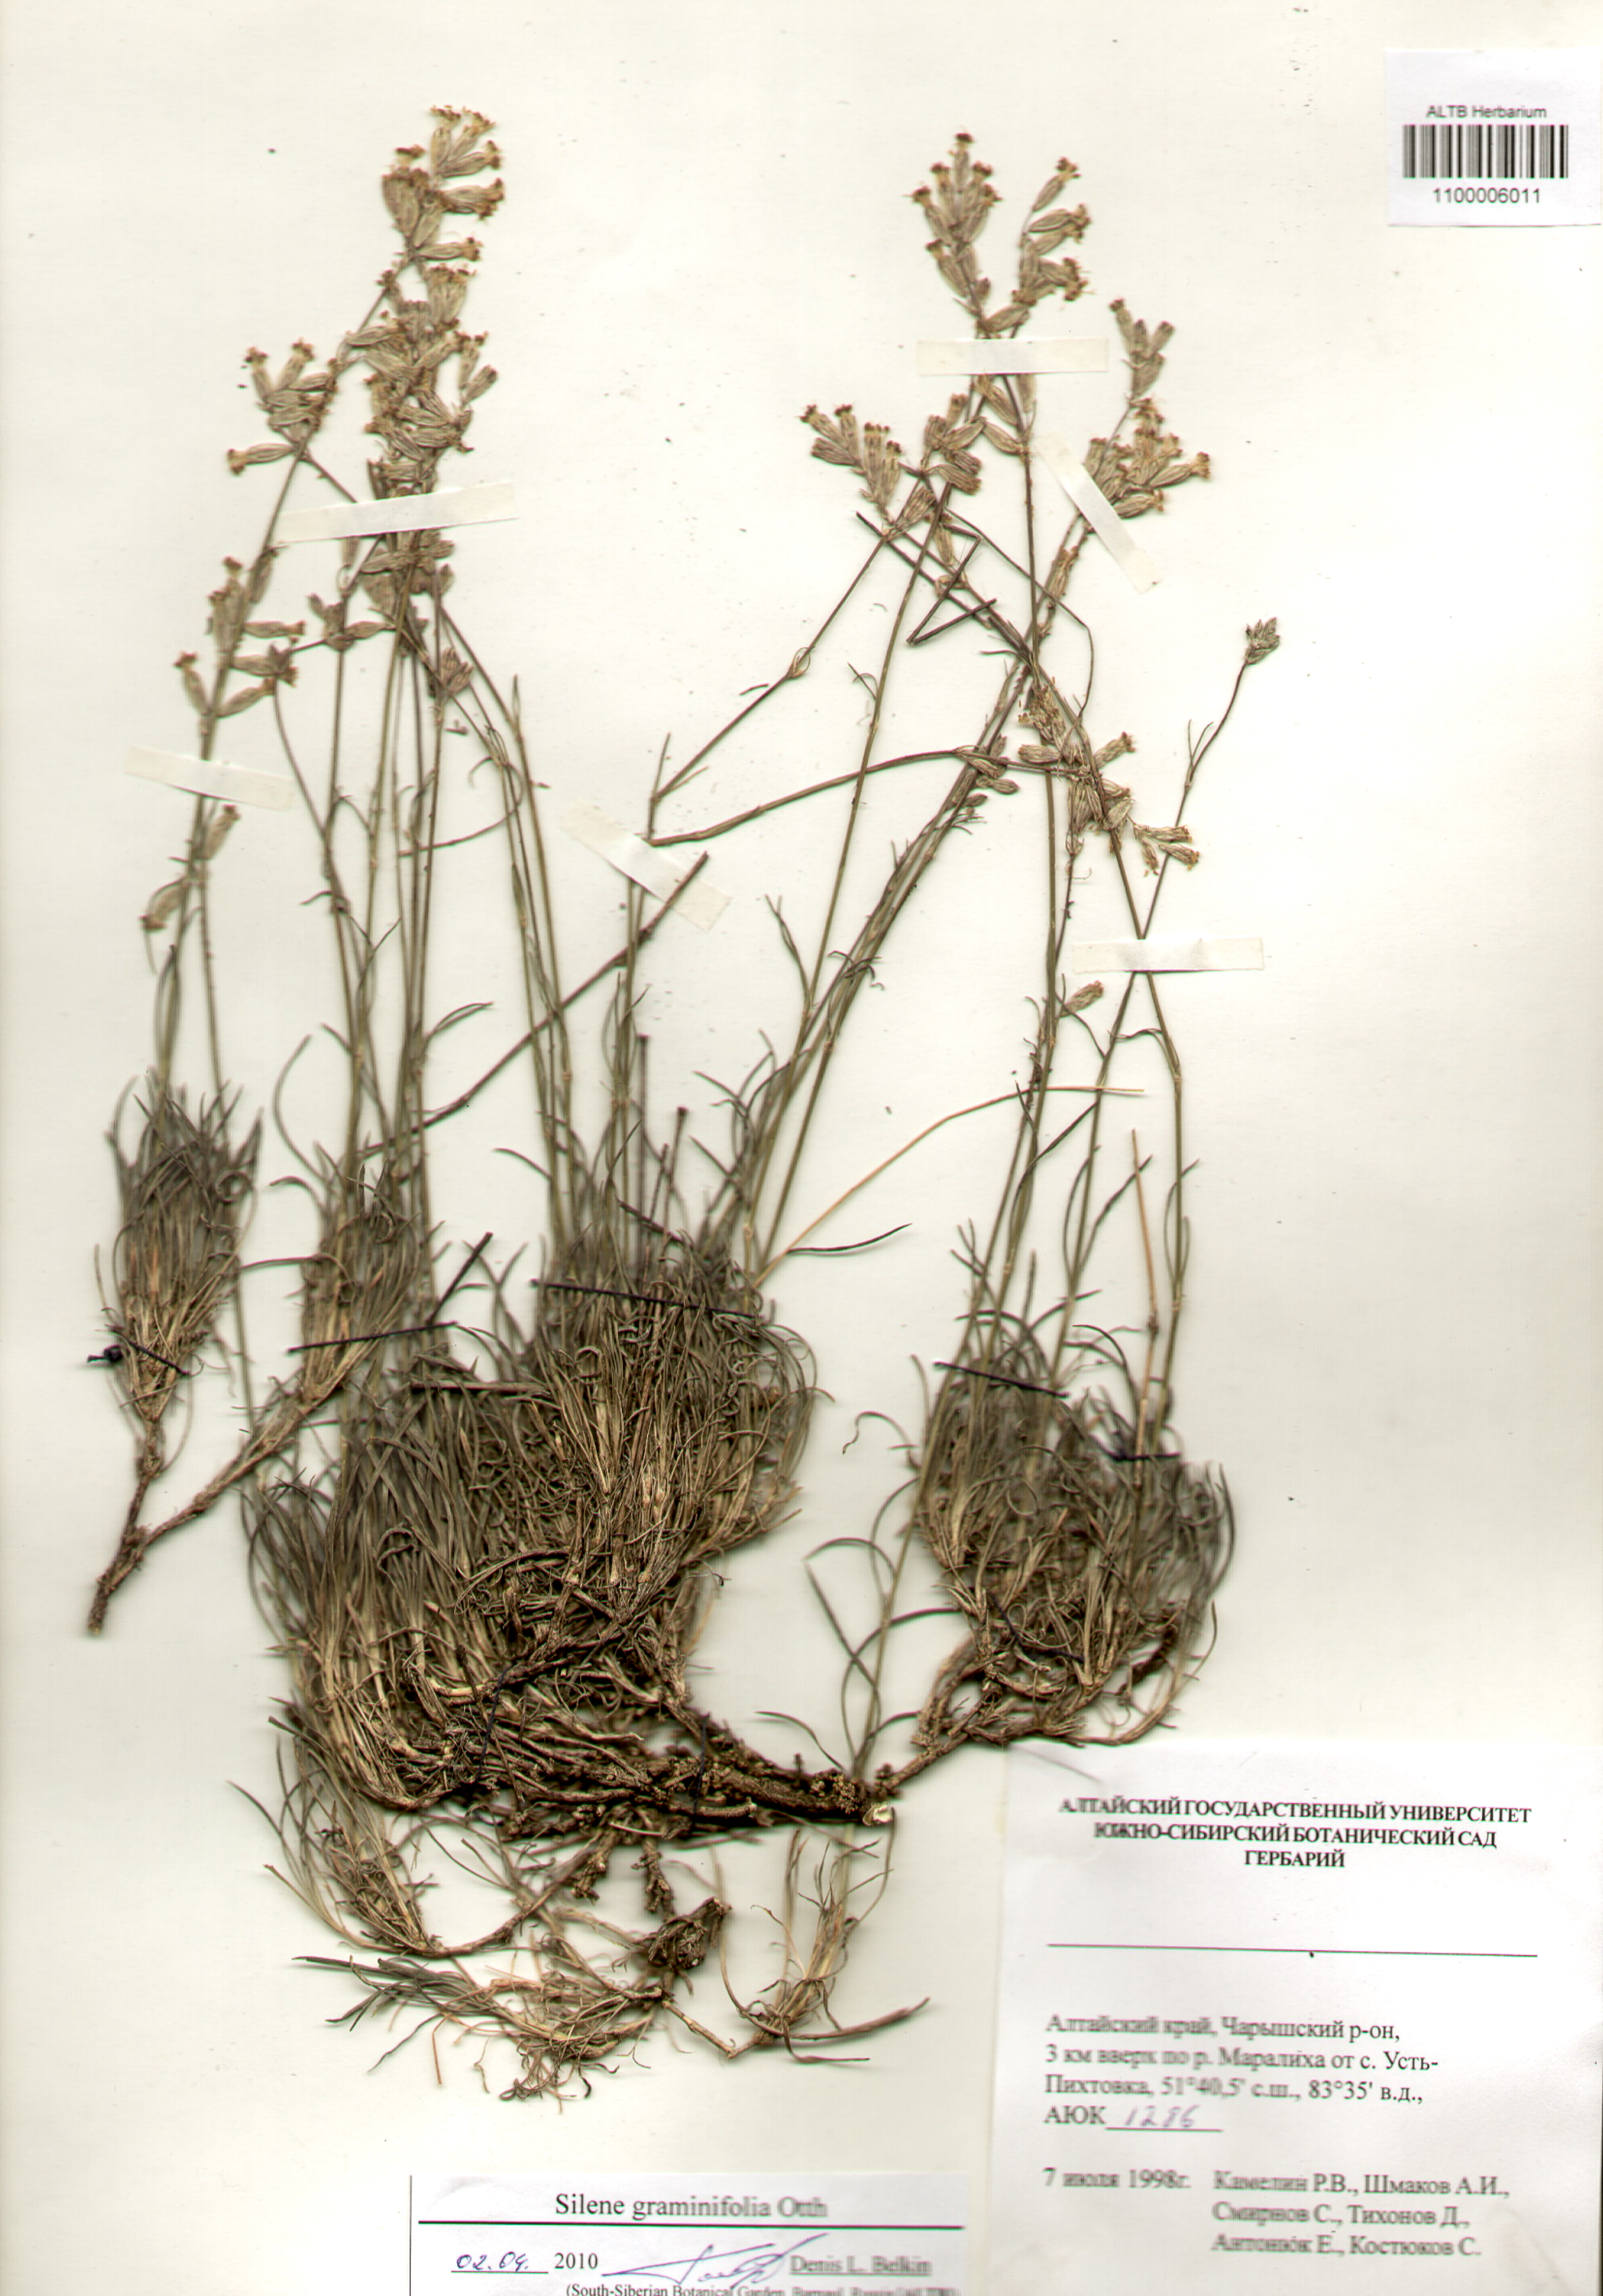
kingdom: Plantae
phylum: Tracheophyta
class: Magnoliopsida
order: Caryophyllales
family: Caryophyllaceae
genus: Silene
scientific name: Silene graminifolia
